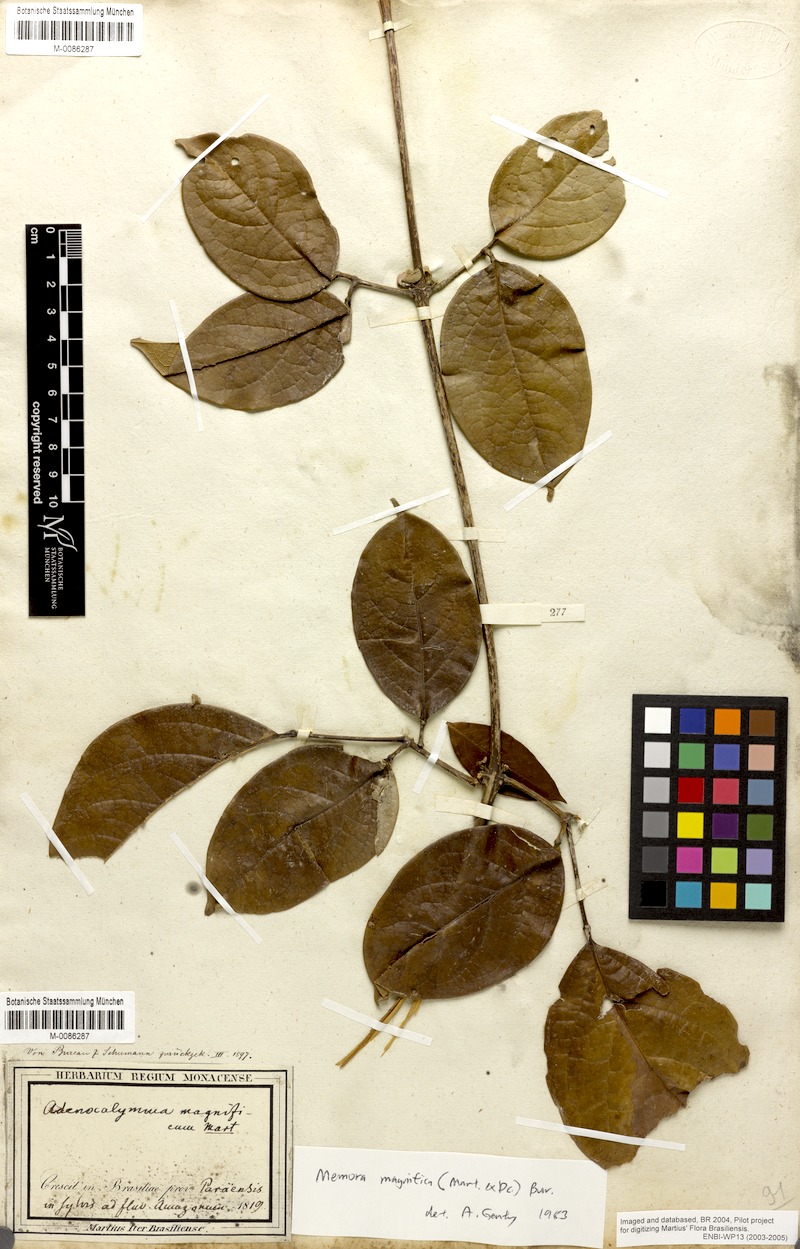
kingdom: Plantae
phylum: Tracheophyta
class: Magnoliopsida
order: Lamiales
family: Bignoniaceae
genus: Adenocalymma
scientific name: Adenocalymma magnificum
